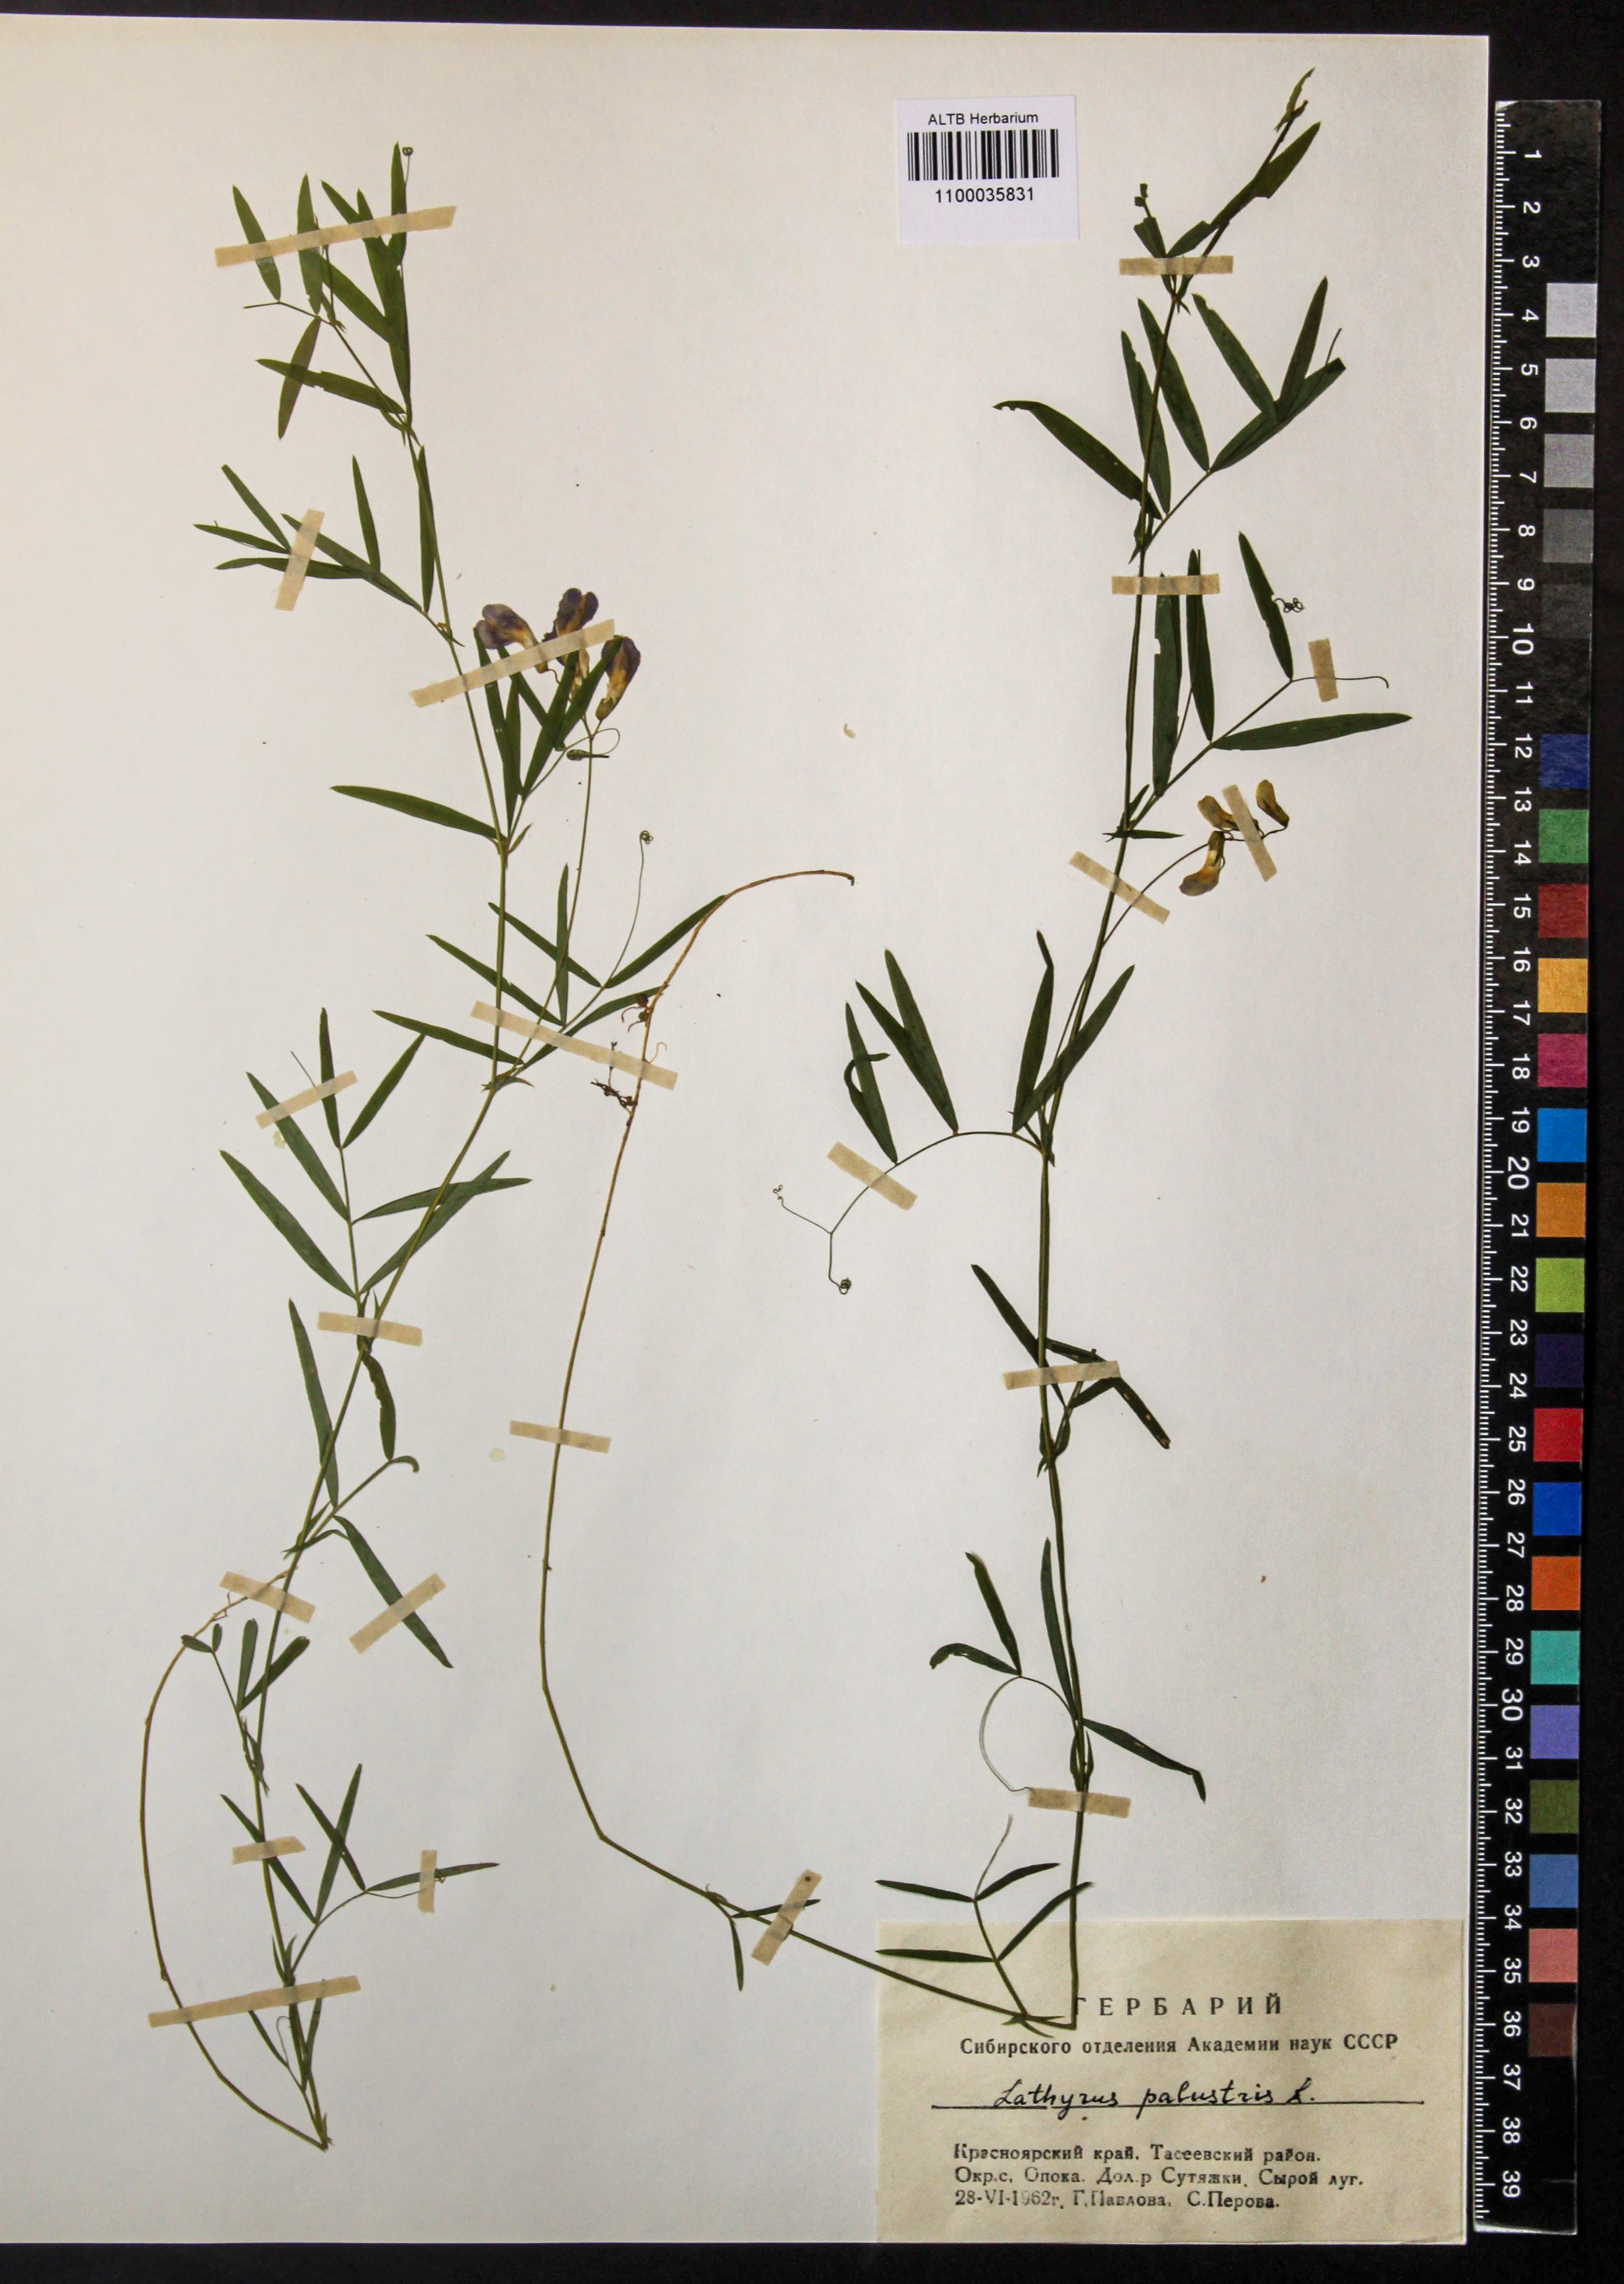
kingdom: Plantae
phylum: Tracheophyta
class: Magnoliopsida
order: Fabales
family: Fabaceae
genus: Lathyrus
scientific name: Lathyrus palustris
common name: Marsh pea
